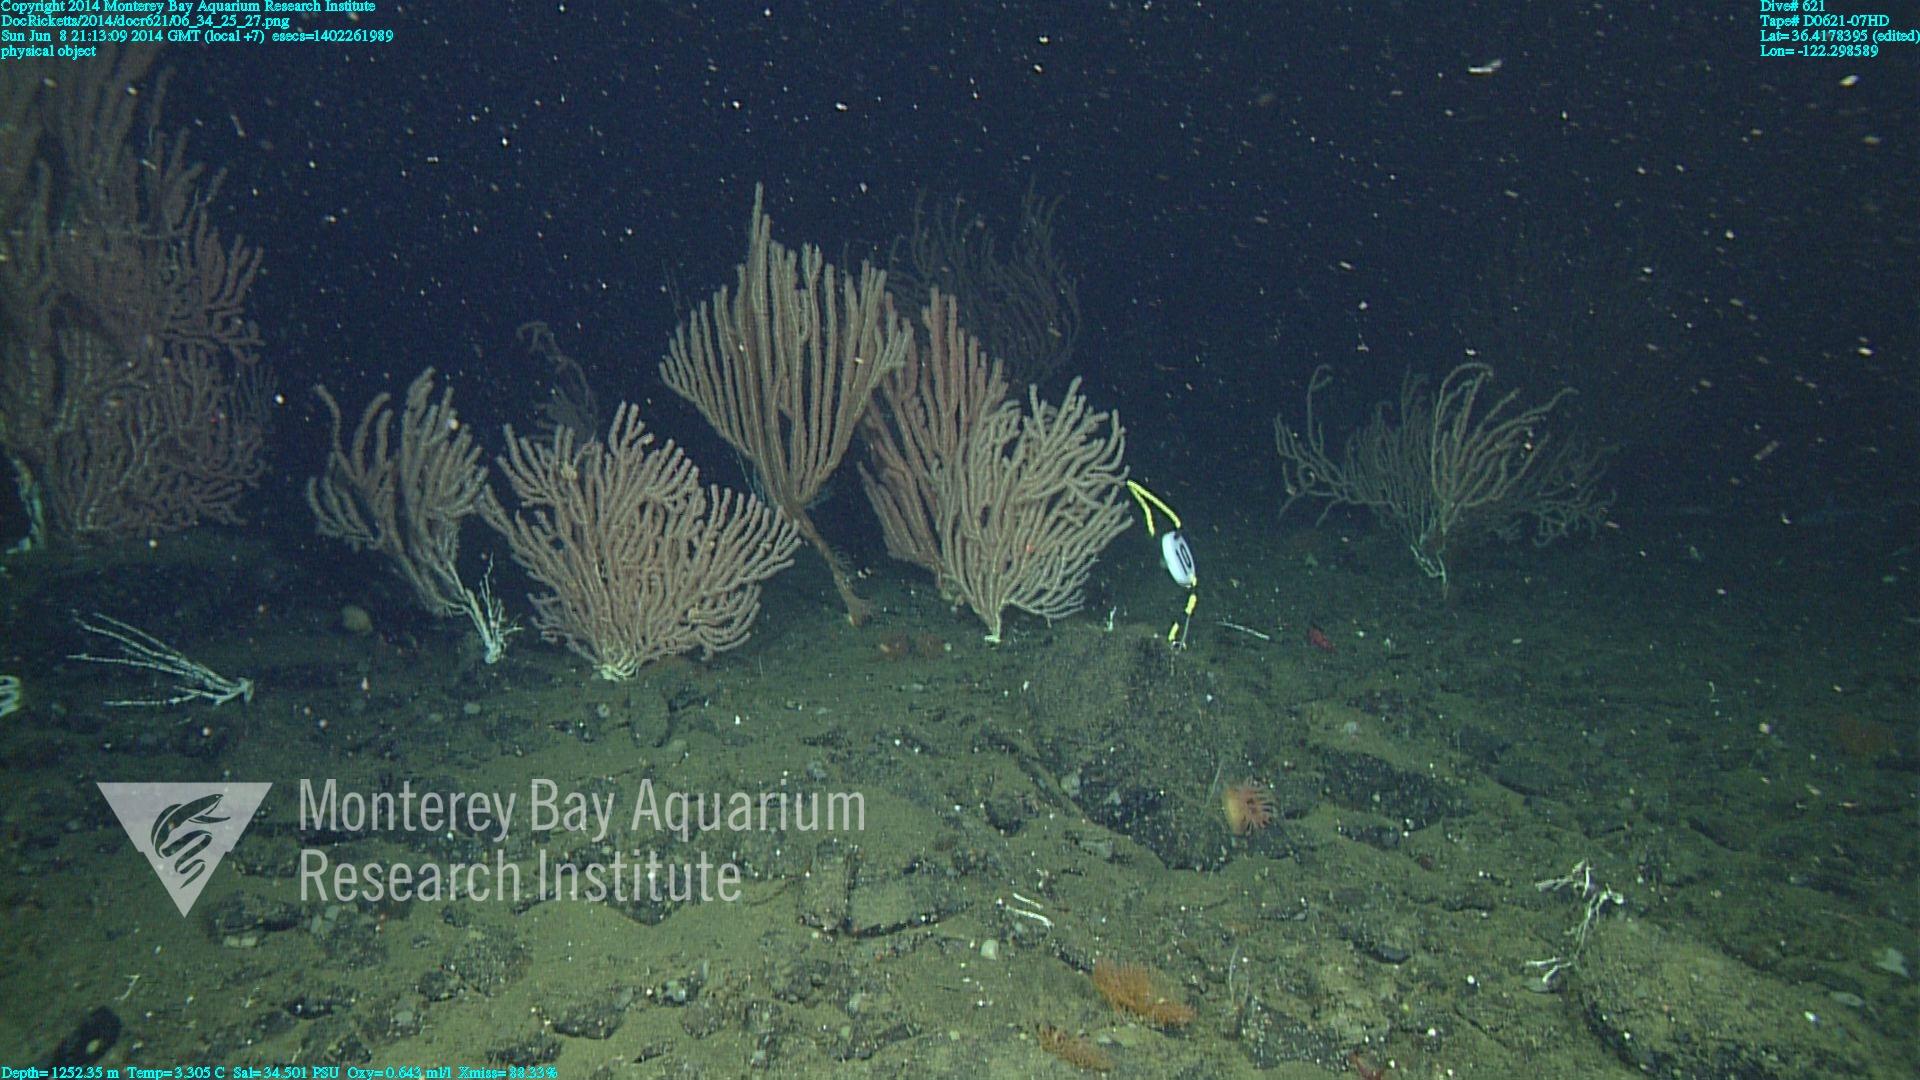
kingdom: Animalia
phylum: Cnidaria
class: Anthozoa
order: Scleralcyonacea
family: Keratoisididae
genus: Keratoisis
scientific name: Keratoisis
